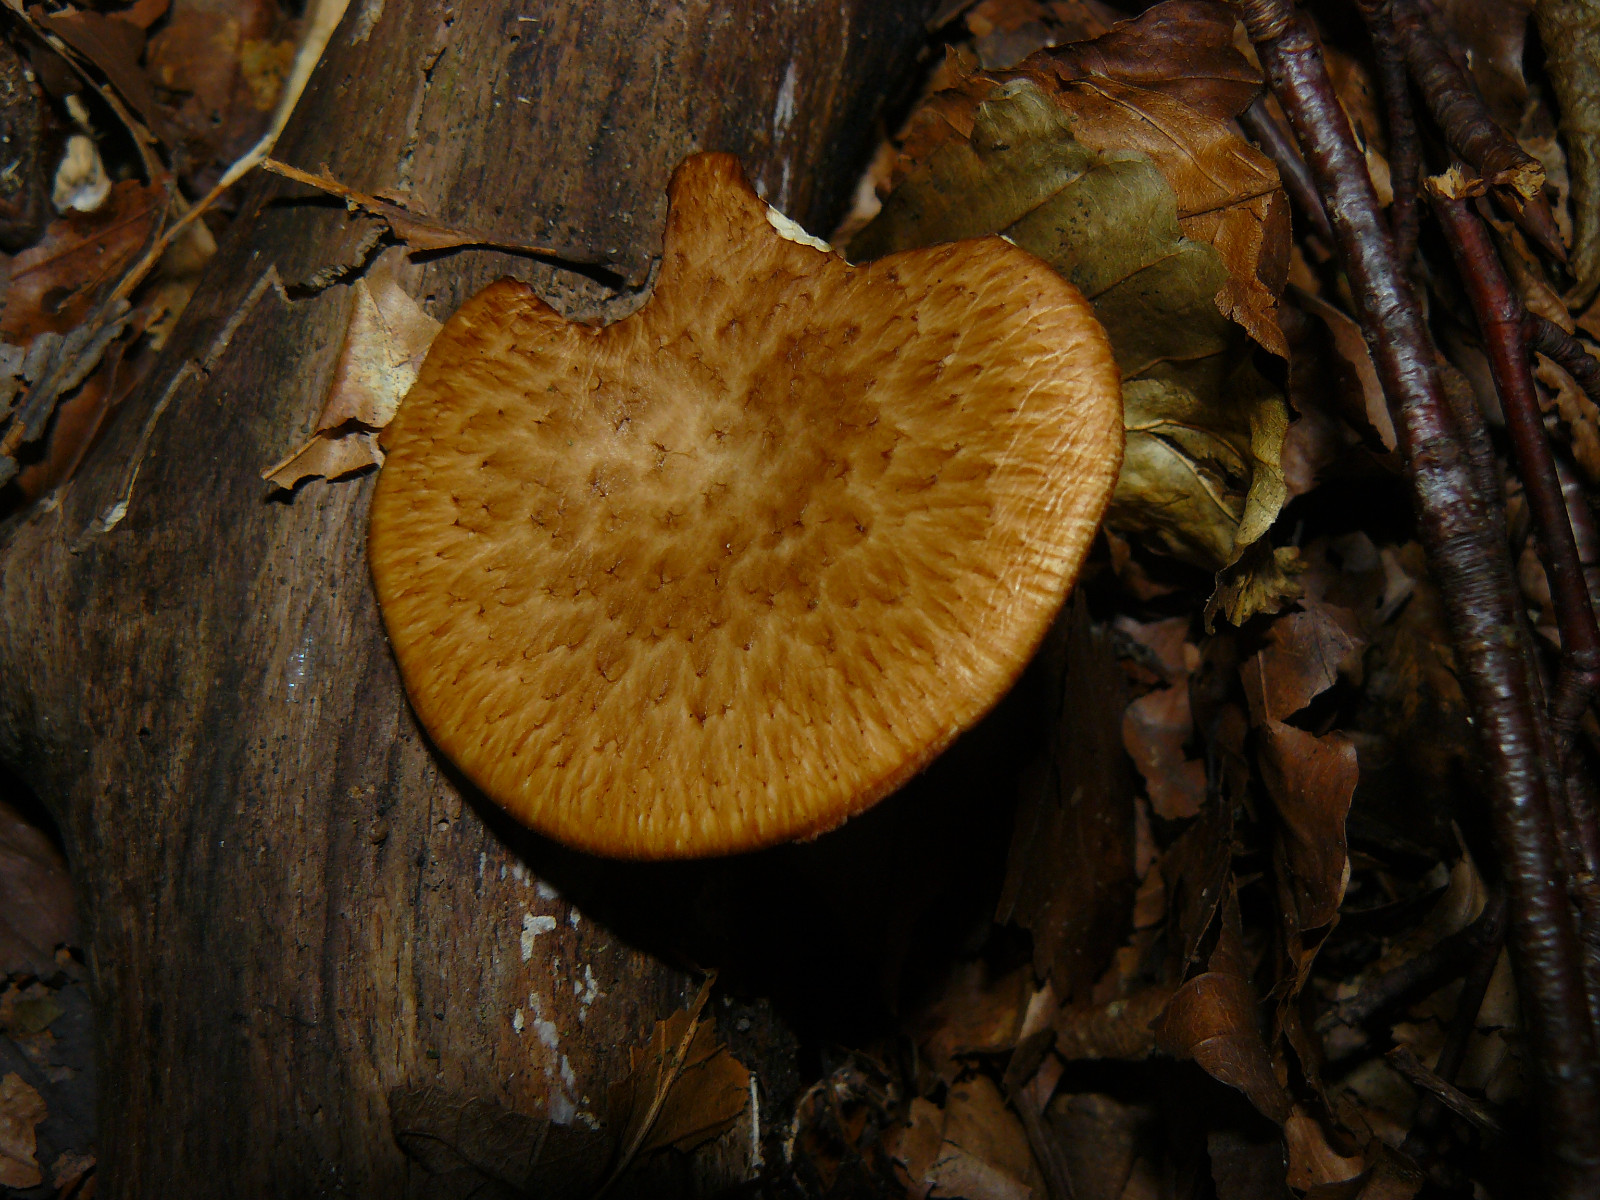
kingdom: Fungi
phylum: Basidiomycota
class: Agaricomycetes
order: Polyporales
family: Polyporaceae
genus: Polyporus
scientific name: Polyporus tuberaster
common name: knoldet stilkporesvamp
